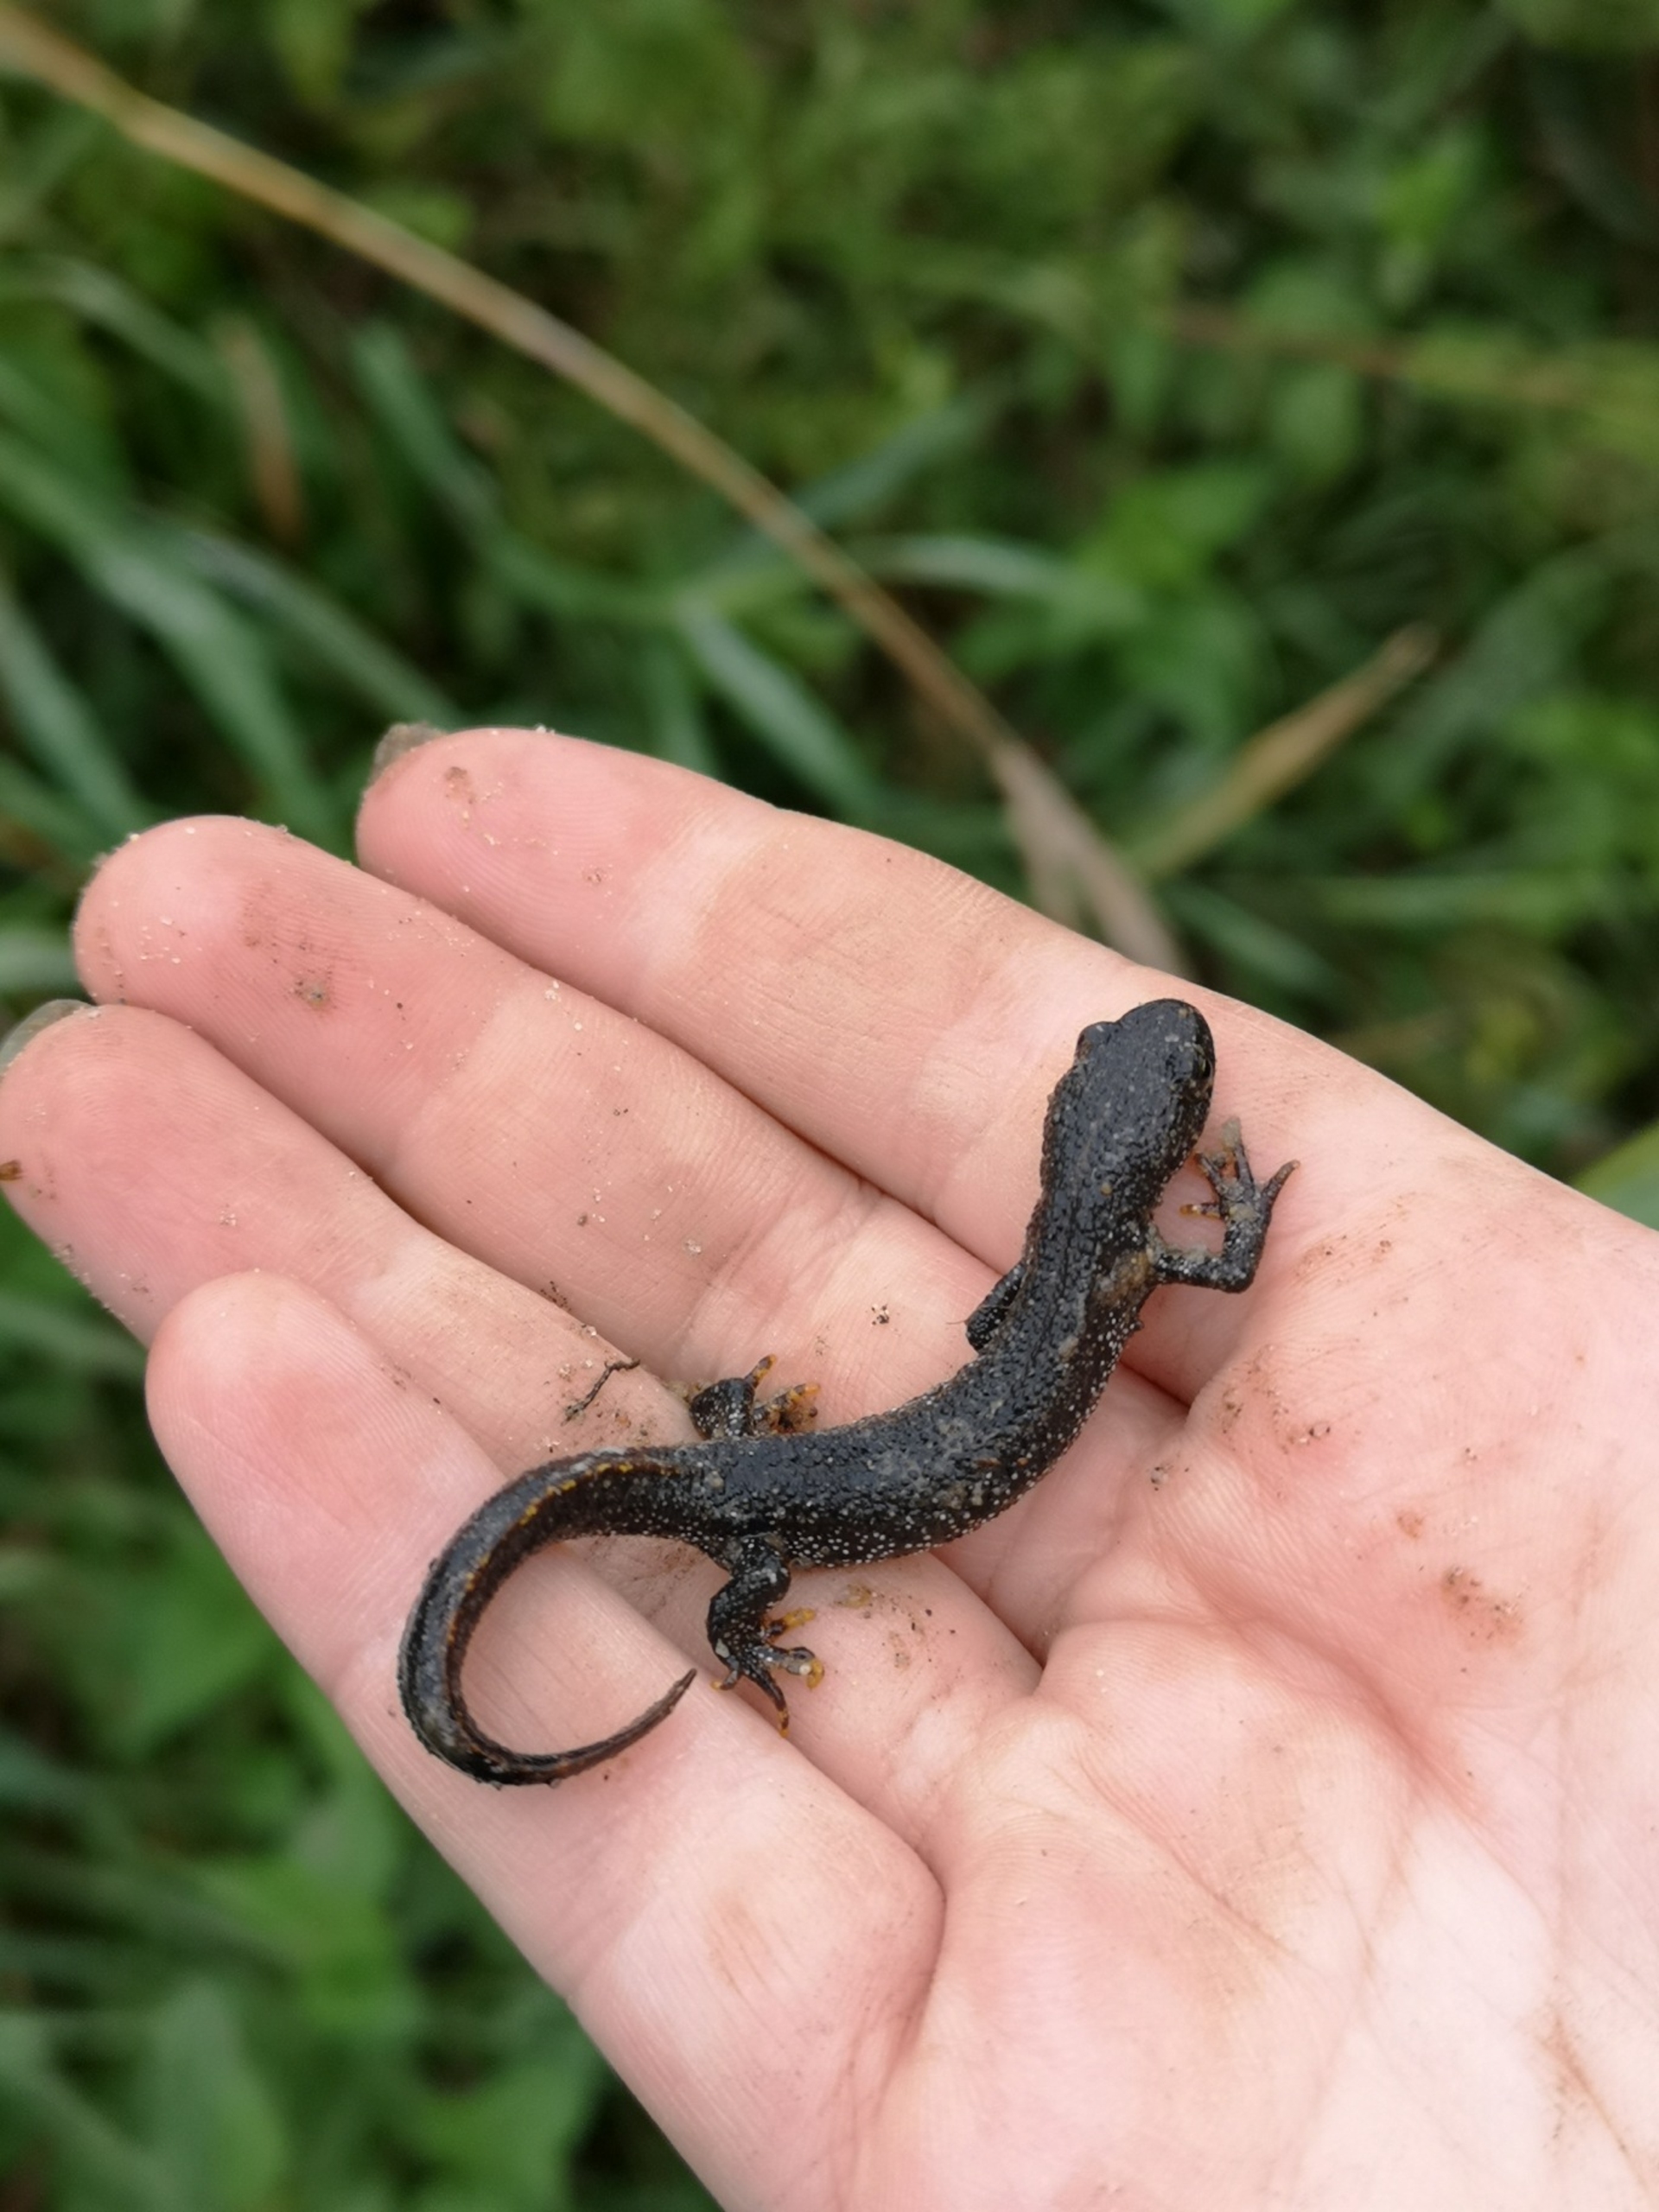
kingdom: Animalia
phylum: Chordata
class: Amphibia
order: Caudata
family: Salamandridae
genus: Triturus
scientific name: Triturus cristatus
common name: Stor vandsalamander
